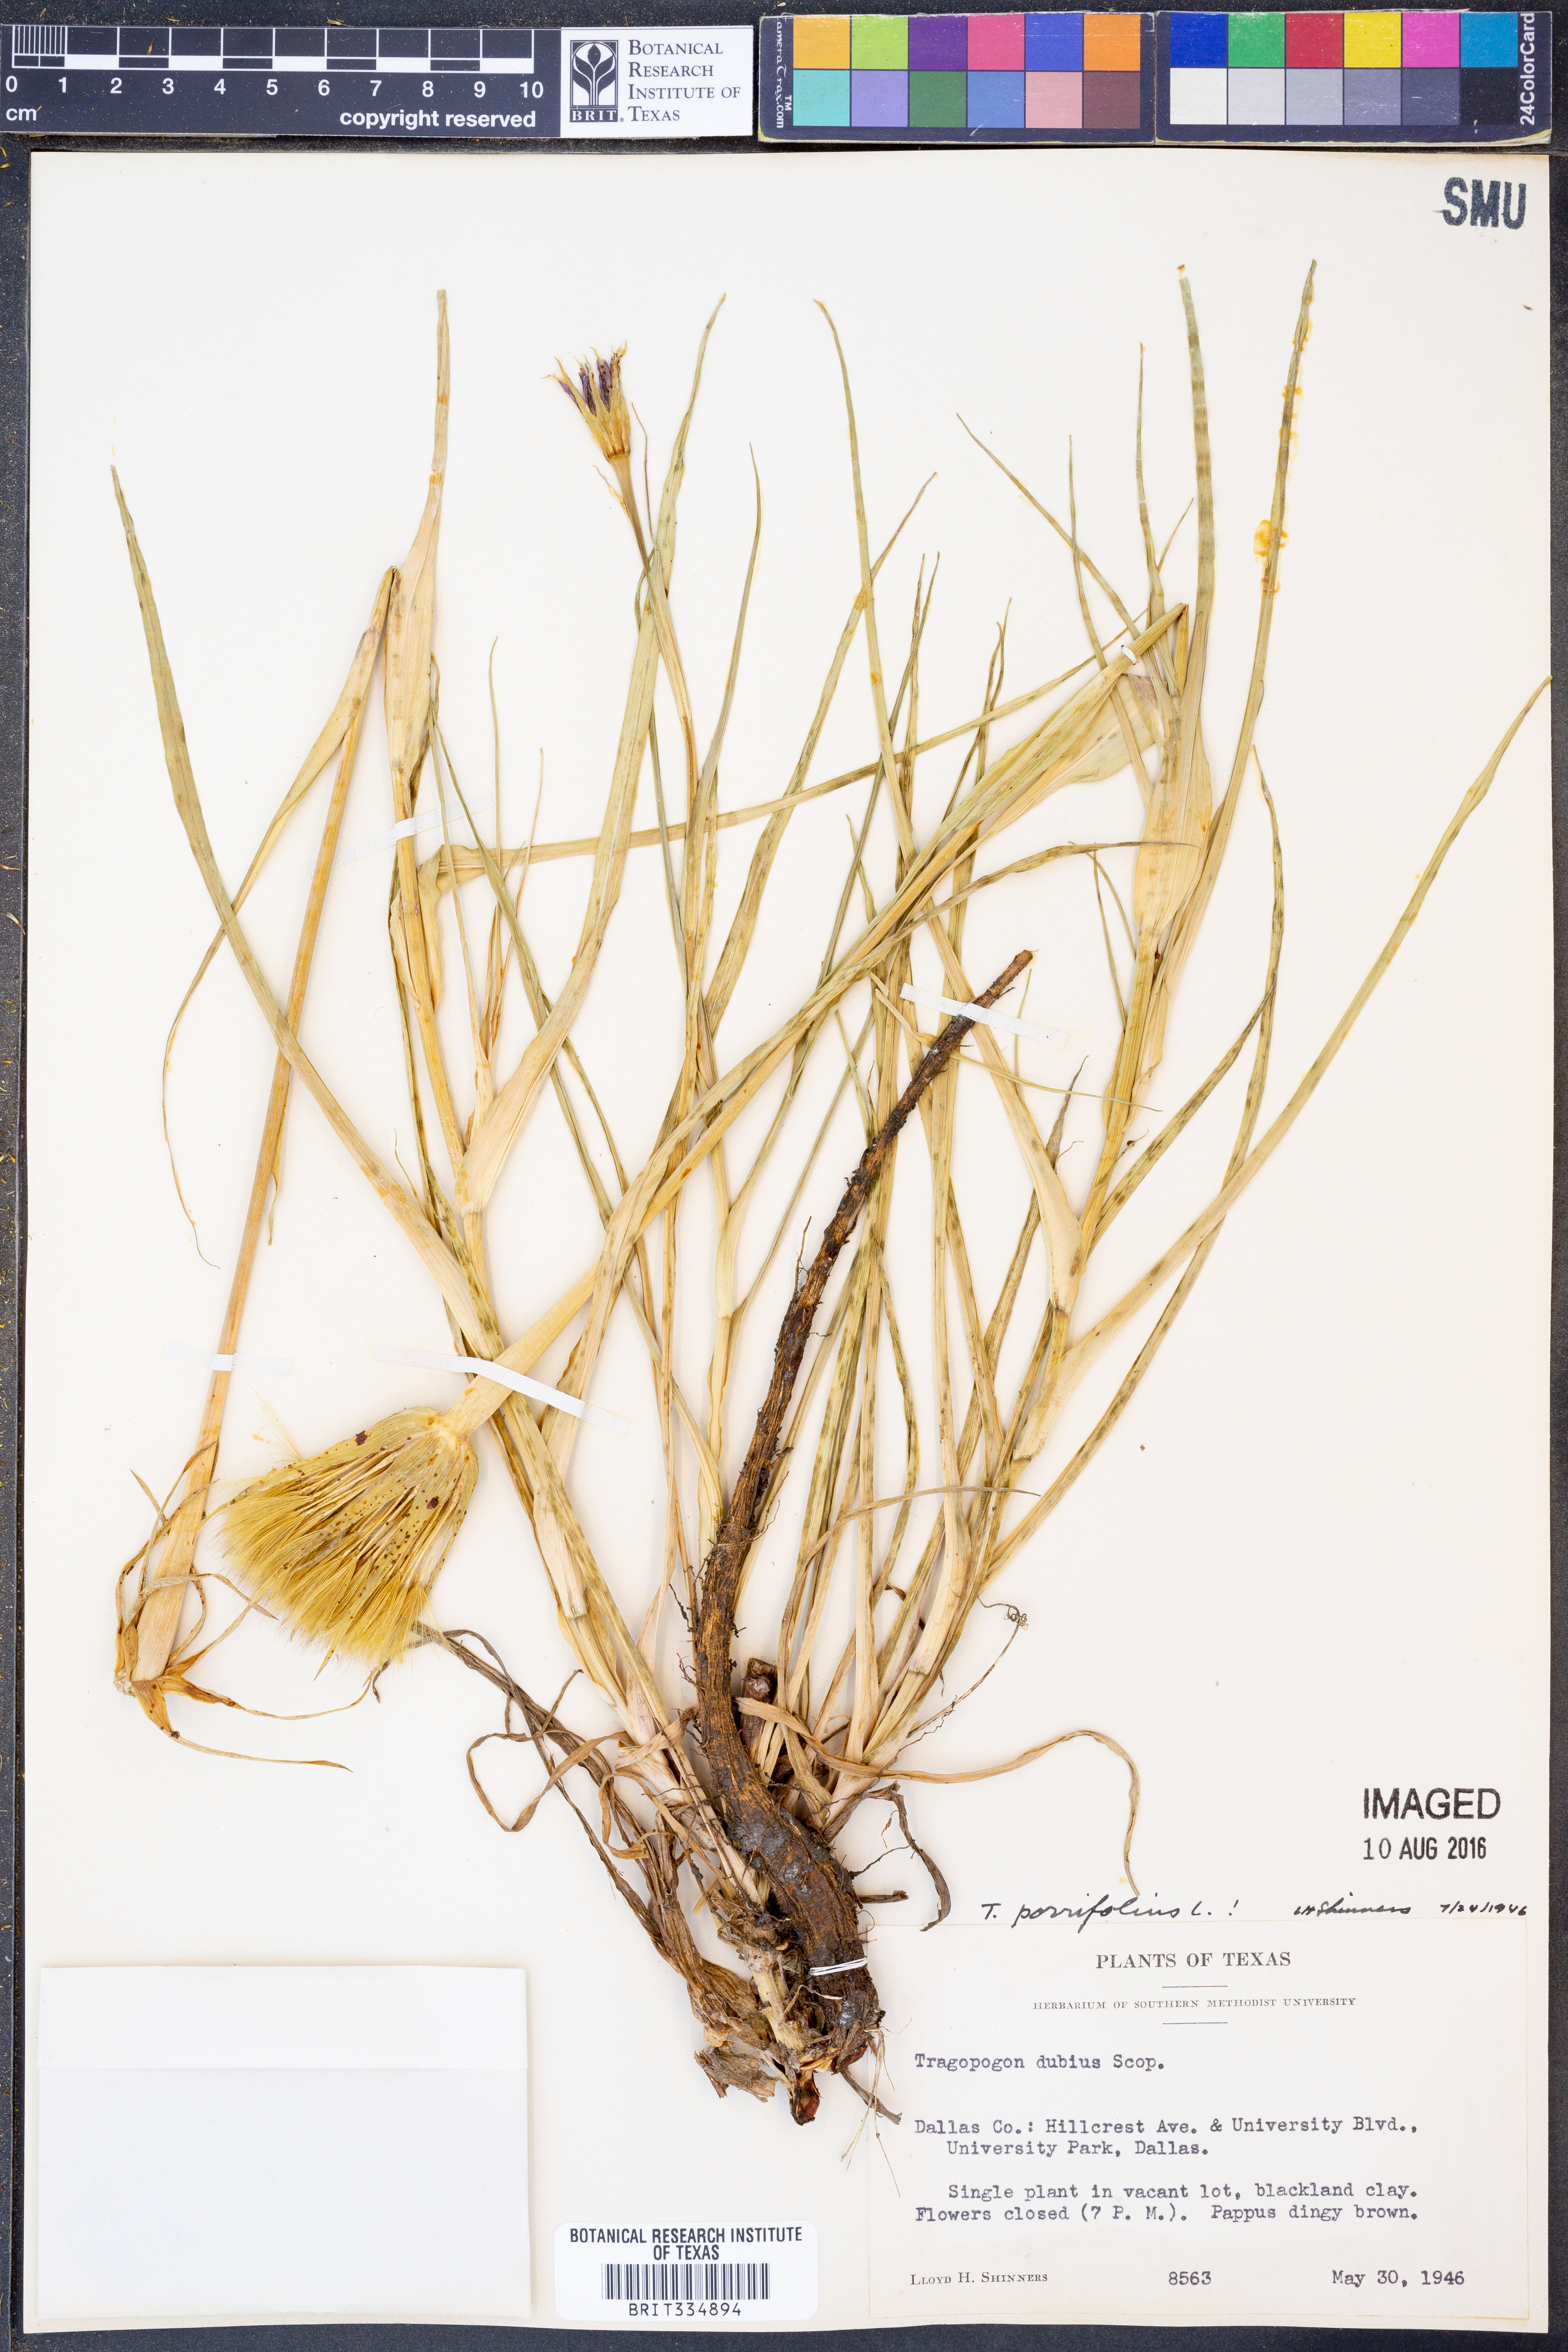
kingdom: Plantae
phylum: Tracheophyta
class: Magnoliopsida
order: Asterales
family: Asteraceae
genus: Tragopogon
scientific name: Tragopogon porrifolius
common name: Salsify
